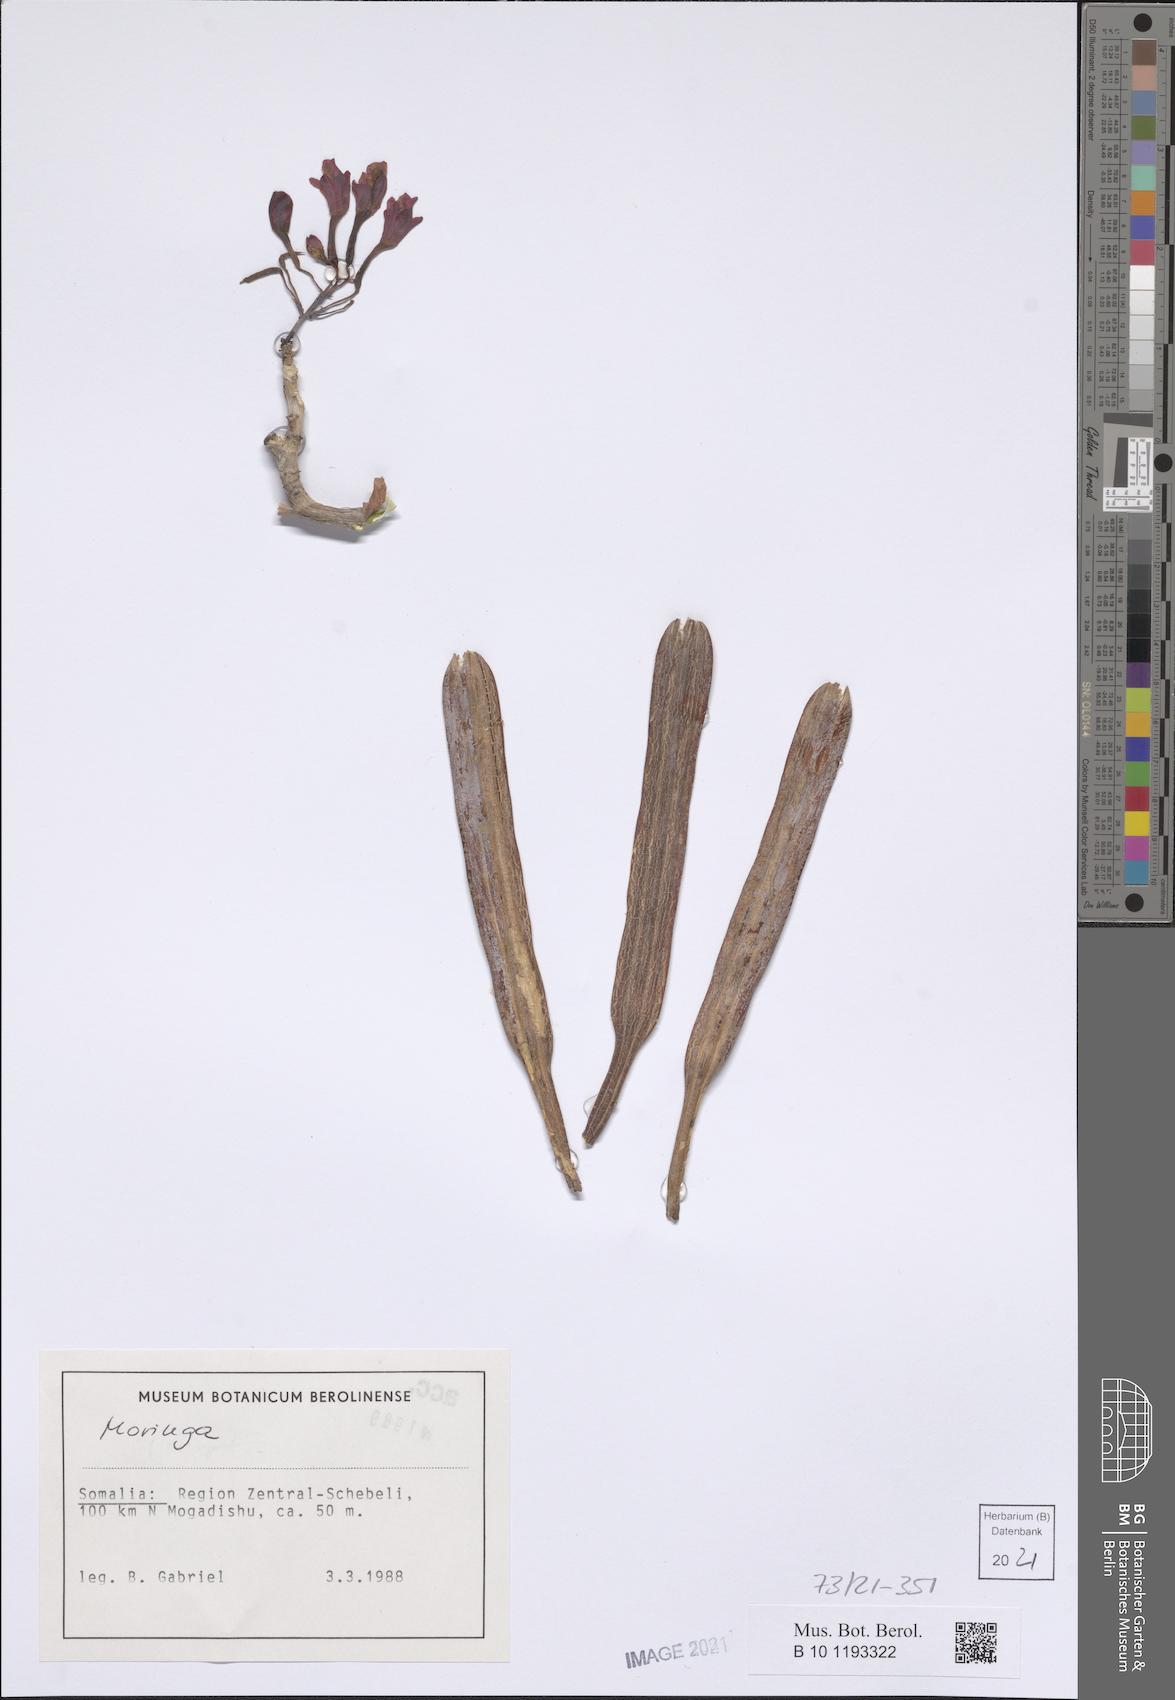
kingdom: Plantae
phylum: Tracheophyta
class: Magnoliopsida
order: Brassicales
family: Moringaceae
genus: Moringa
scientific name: Moringa
